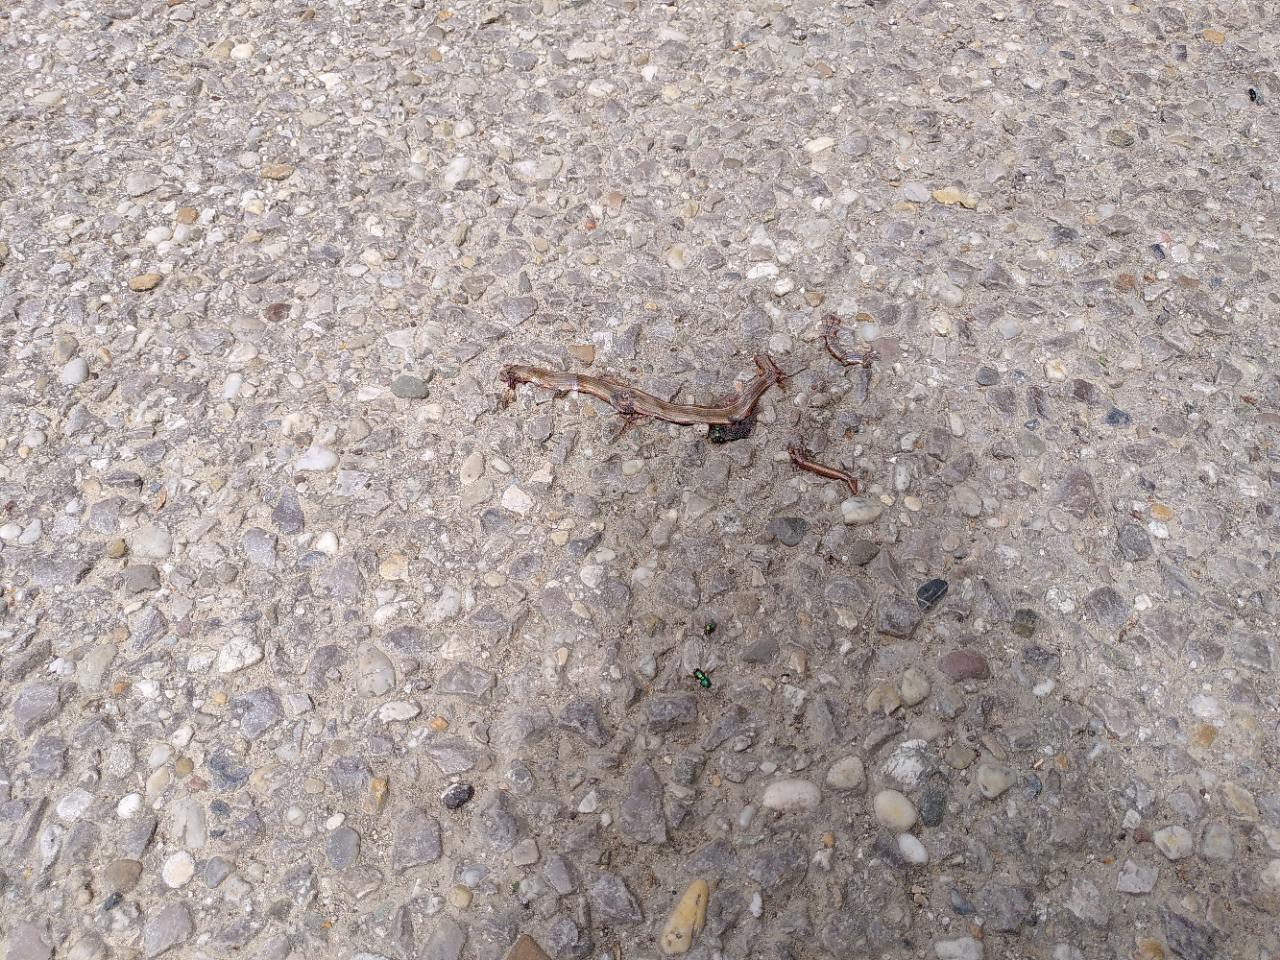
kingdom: Animalia
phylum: Chordata
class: Squamata
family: Anguidae
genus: Anguis
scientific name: Anguis fragilis
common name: Slow worm
